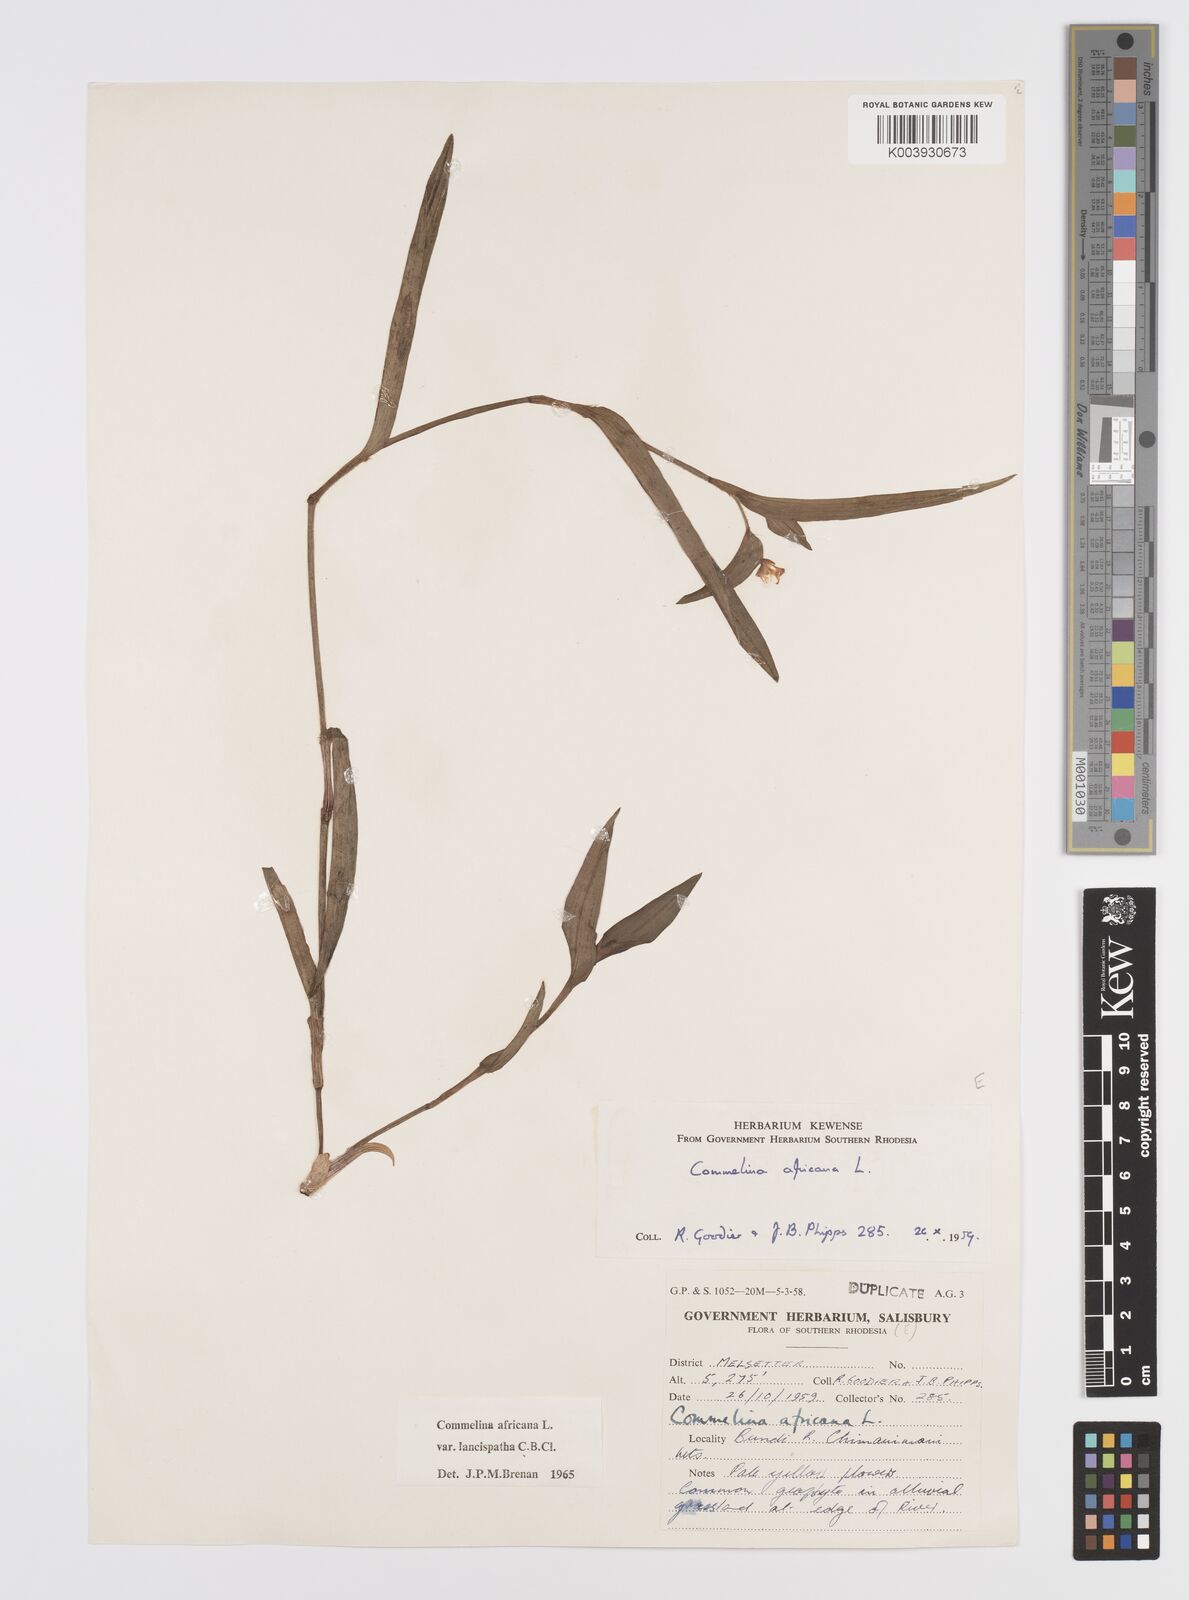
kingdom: Plantae
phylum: Tracheophyta
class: Liliopsida
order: Commelinales
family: Commelinaceae
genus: Commelina
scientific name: Commelina africana
